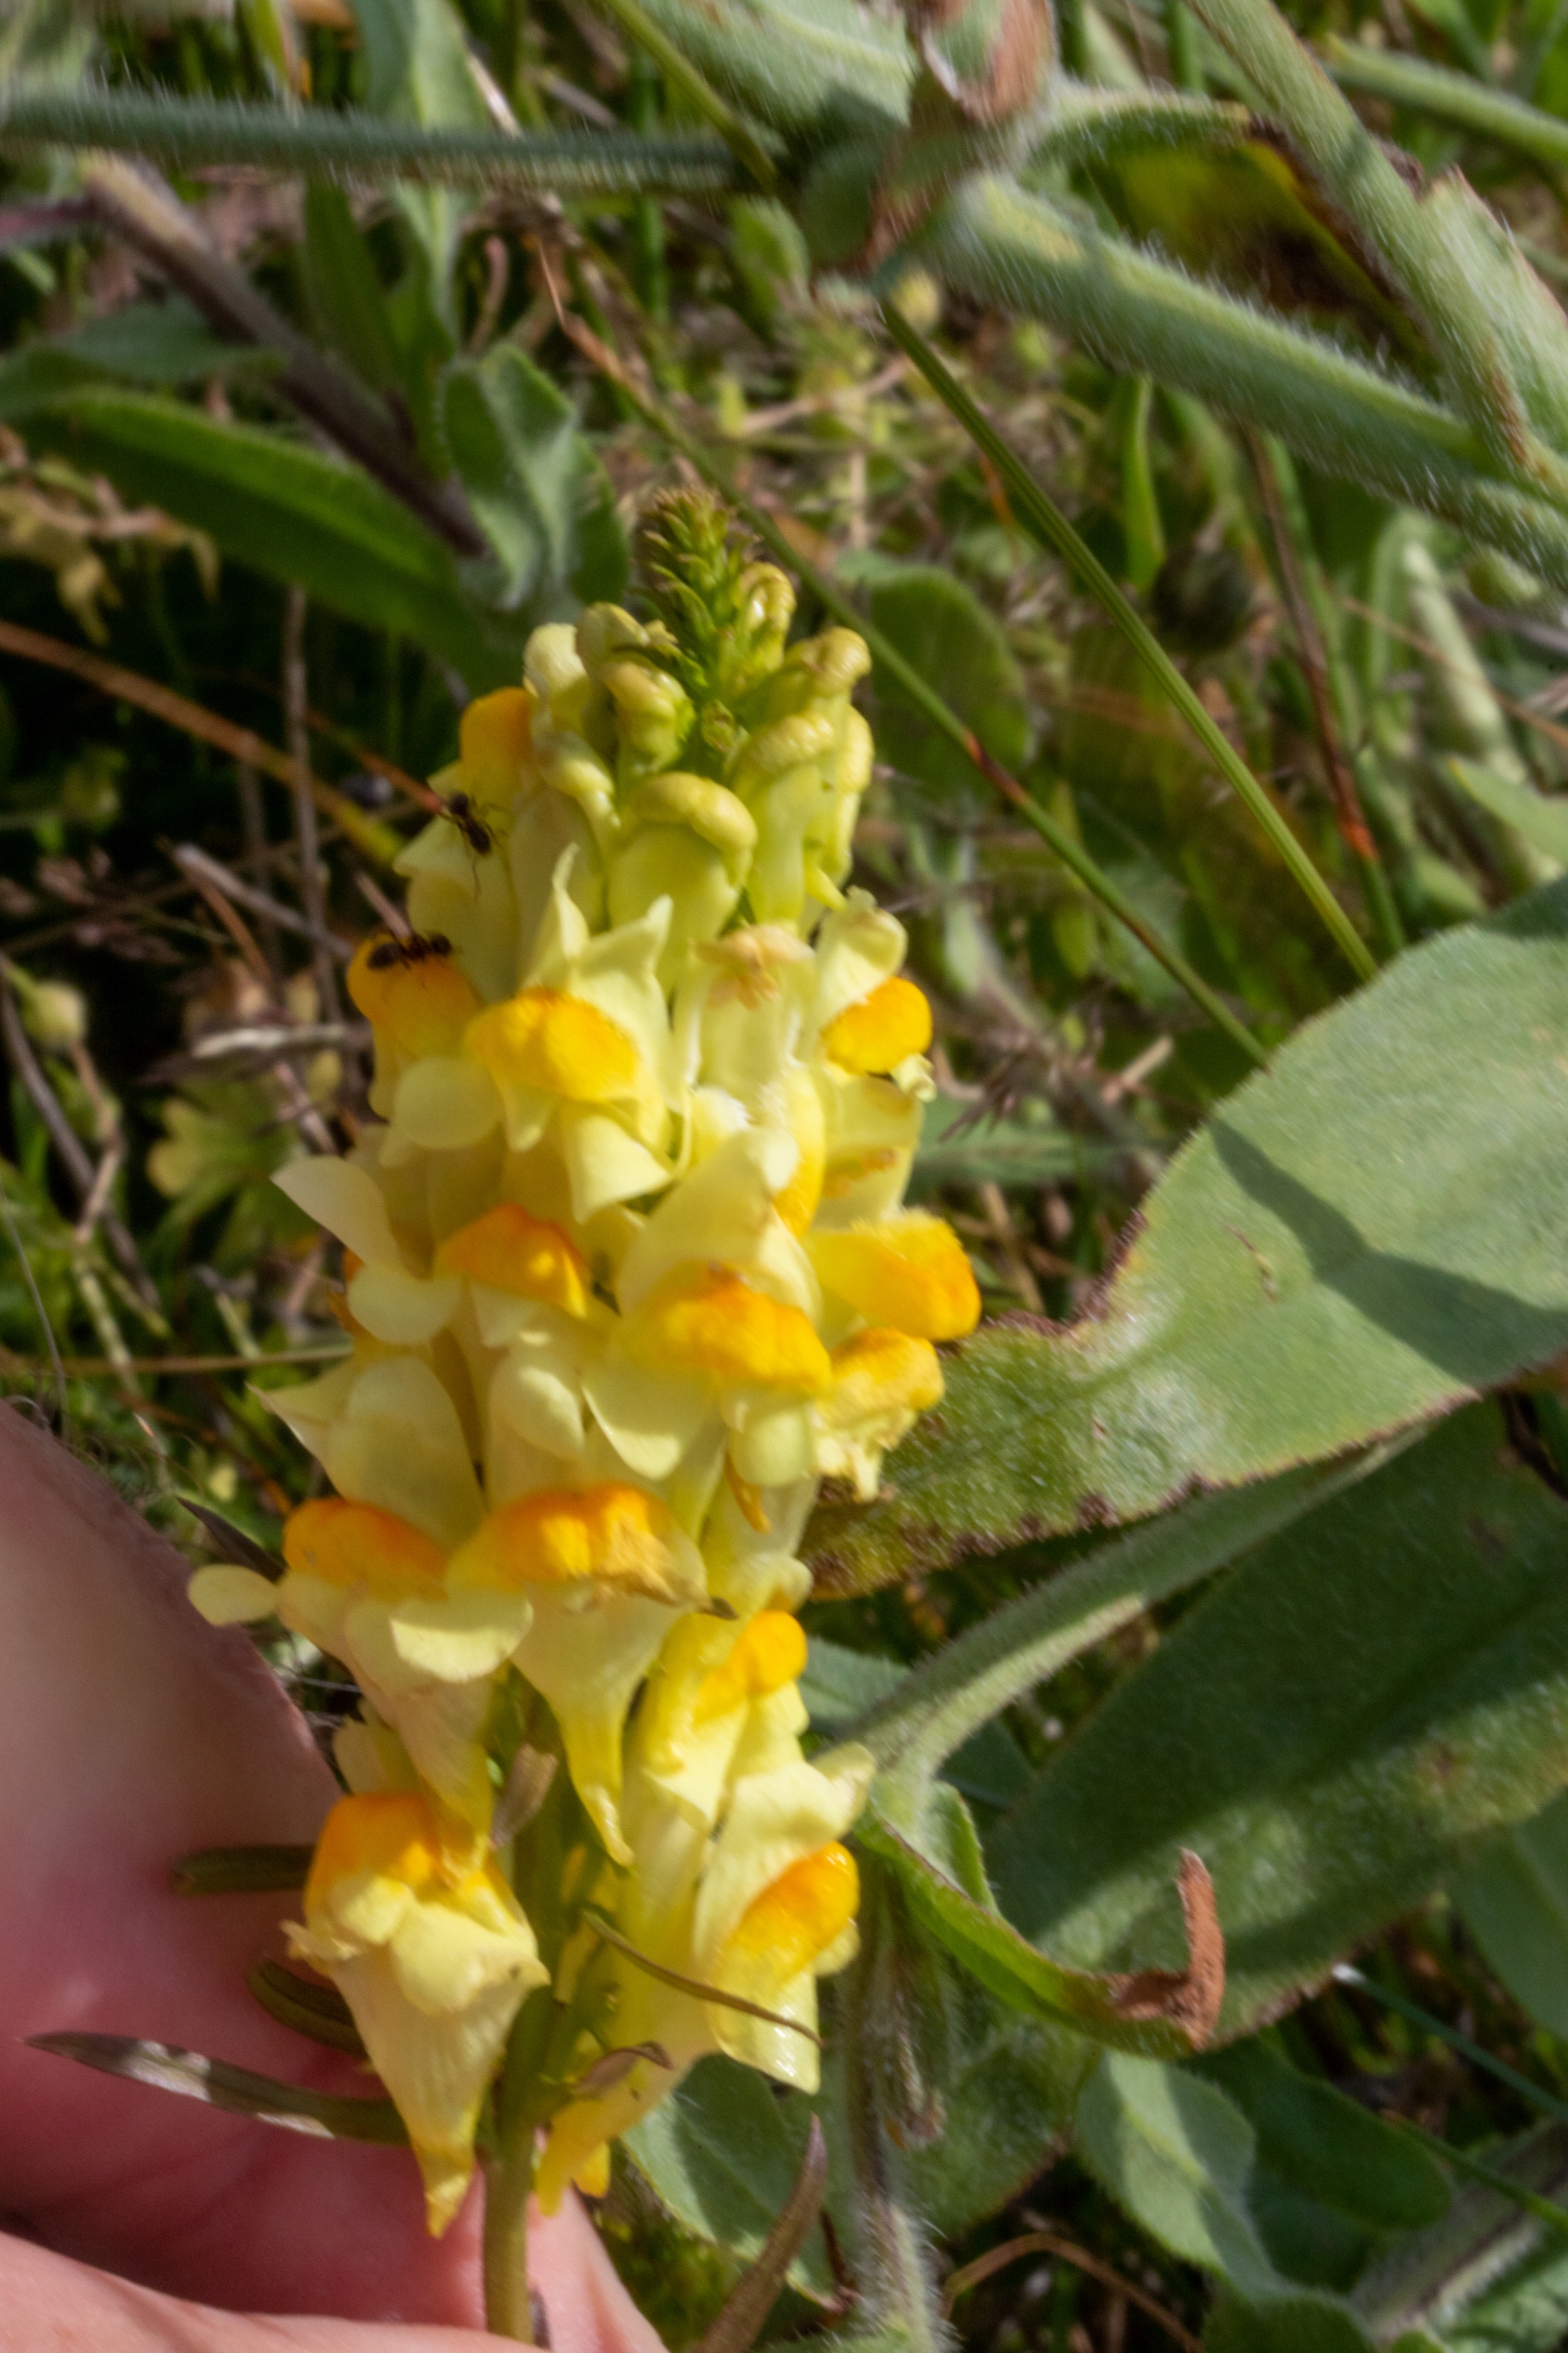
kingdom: Plantae
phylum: Tracheophyta
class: Magnoliopsida
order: Lamiales
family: Plantaginaceae
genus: Linaria
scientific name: Linaria vulgaris
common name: Almindelig torskemund
